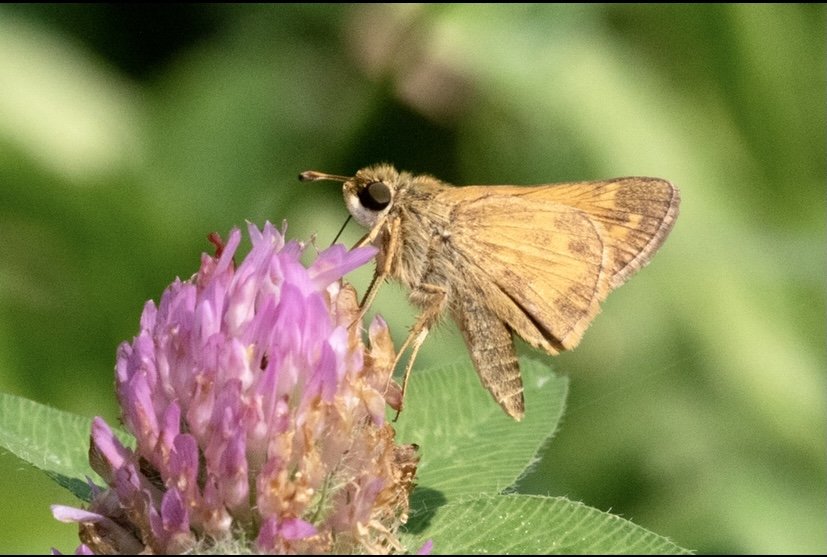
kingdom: Animalia
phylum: Arthropoda
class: Insecta
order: Lepidoptera
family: Hesperiidae
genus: Atalopedes
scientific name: Atalopedes campestris
